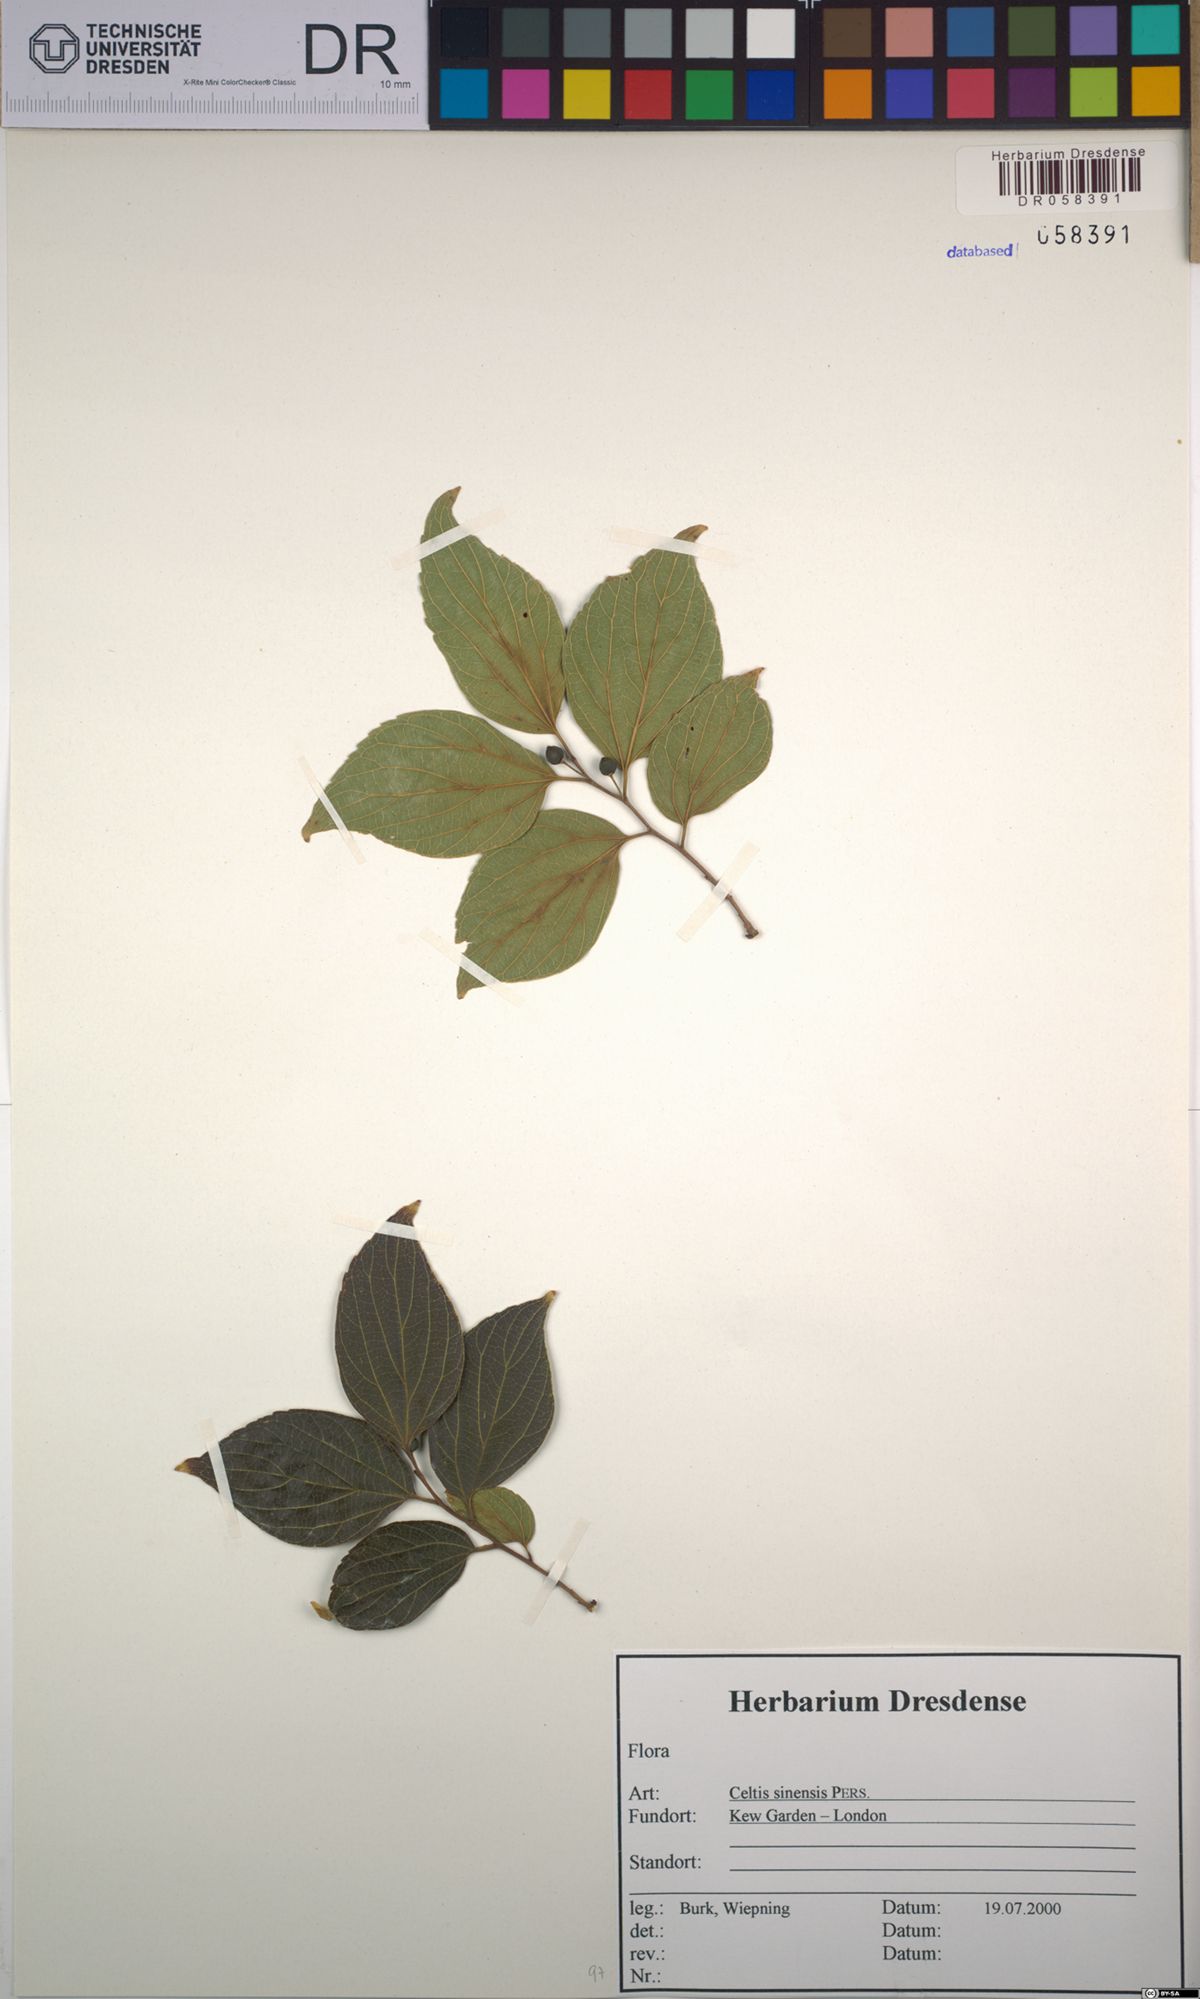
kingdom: Plantae
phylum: Tracheophyta
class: Magnoliopsida
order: Rosales
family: Cannabaceae
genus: Celtis
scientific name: Celtis sinensis
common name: Chinese hackberry
